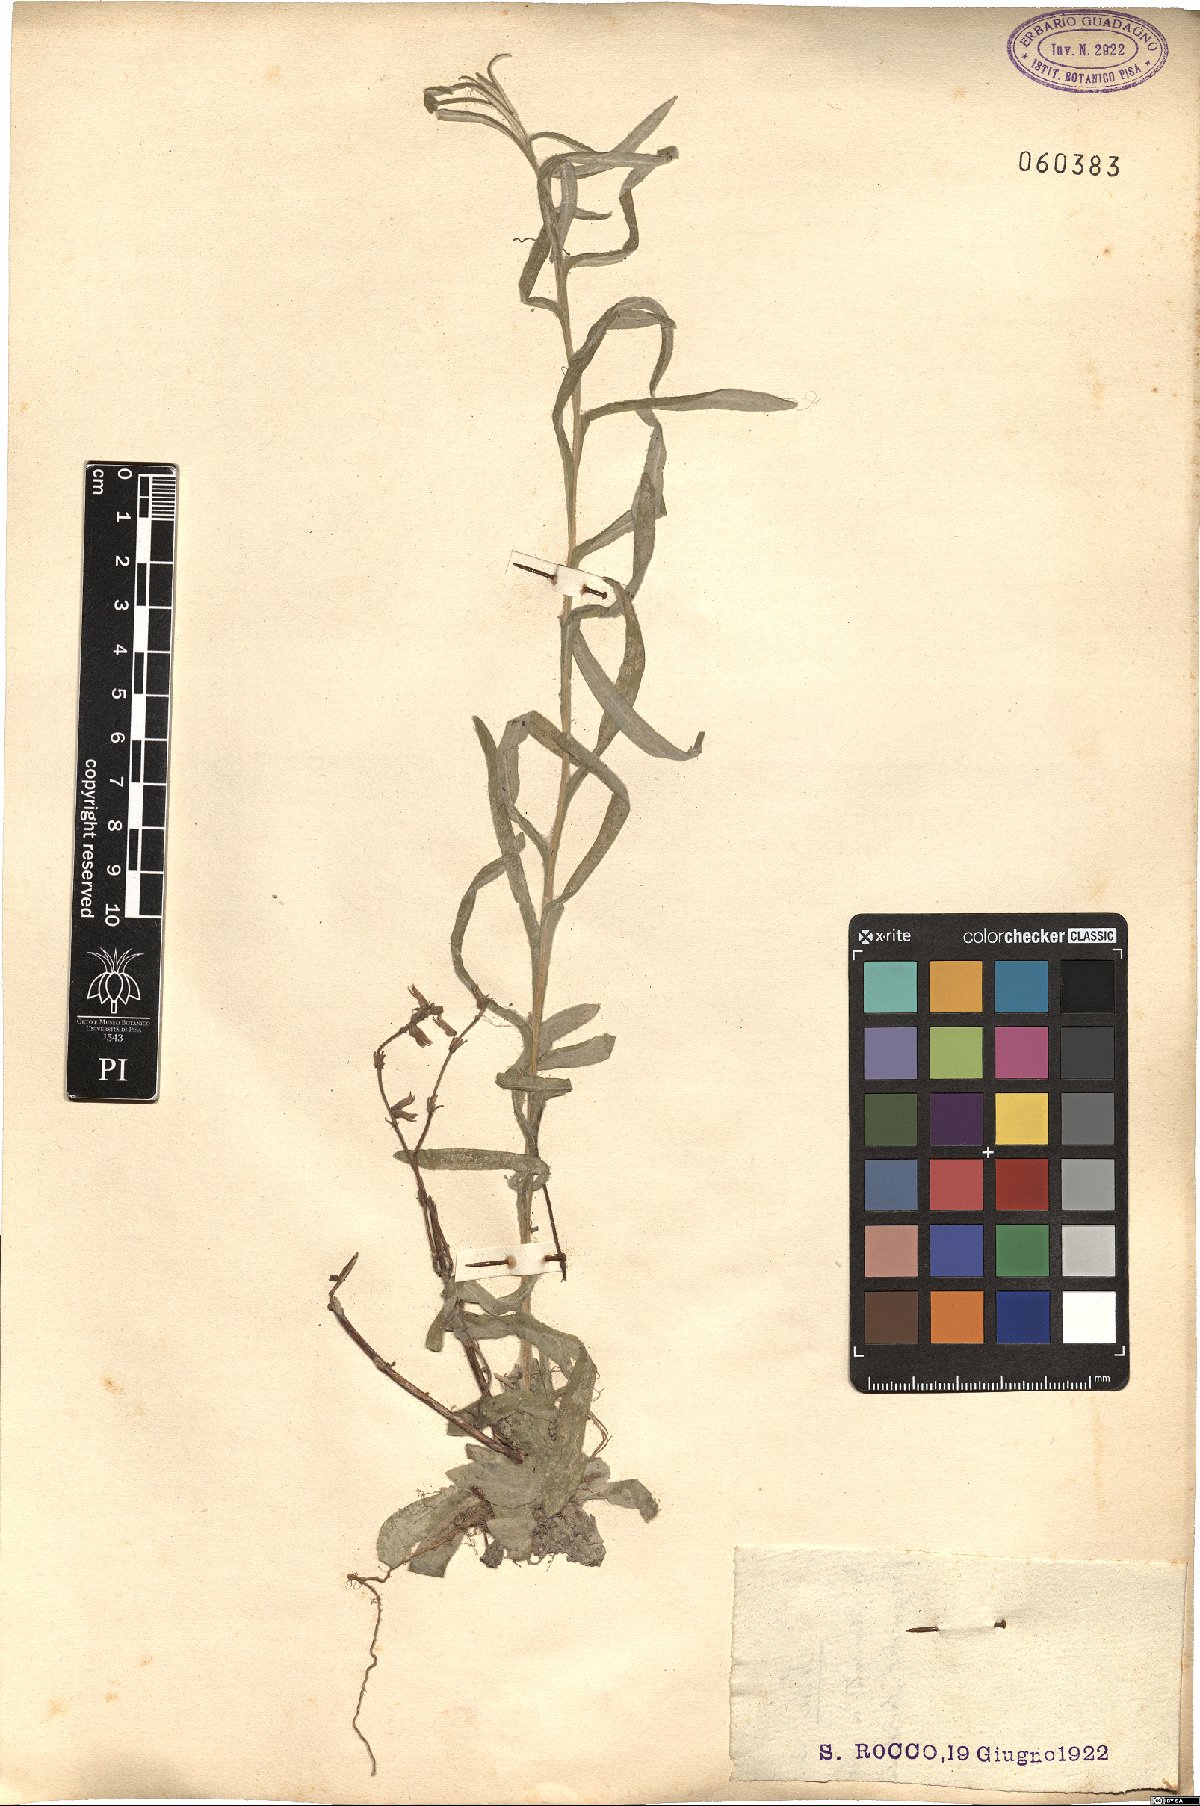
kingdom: Plantae
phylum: Tracheophyta
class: Magnoliopsida
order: Asterales
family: Asteraceae
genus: Helichrysum
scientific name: Helichrysum
